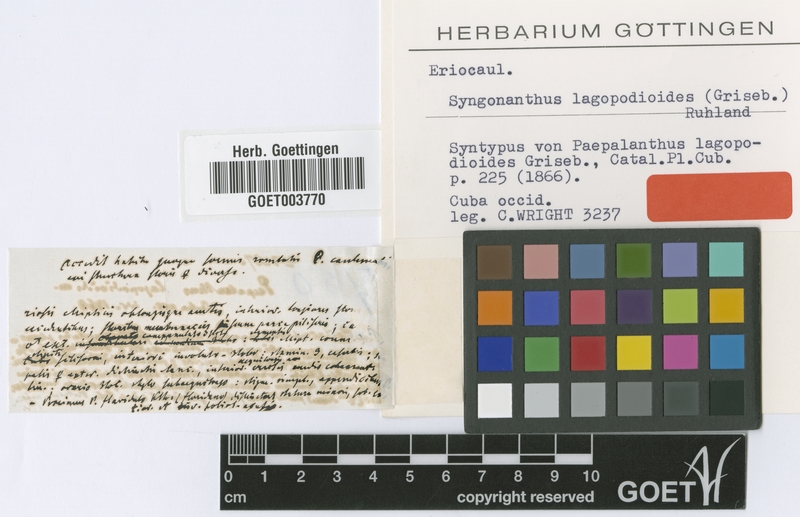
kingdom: Plantae
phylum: Tracheophyta
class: Liliopsida
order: Poales
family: Eriocaulaceae
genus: Syngonanthus
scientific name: Syngonanthus lagopodioides
